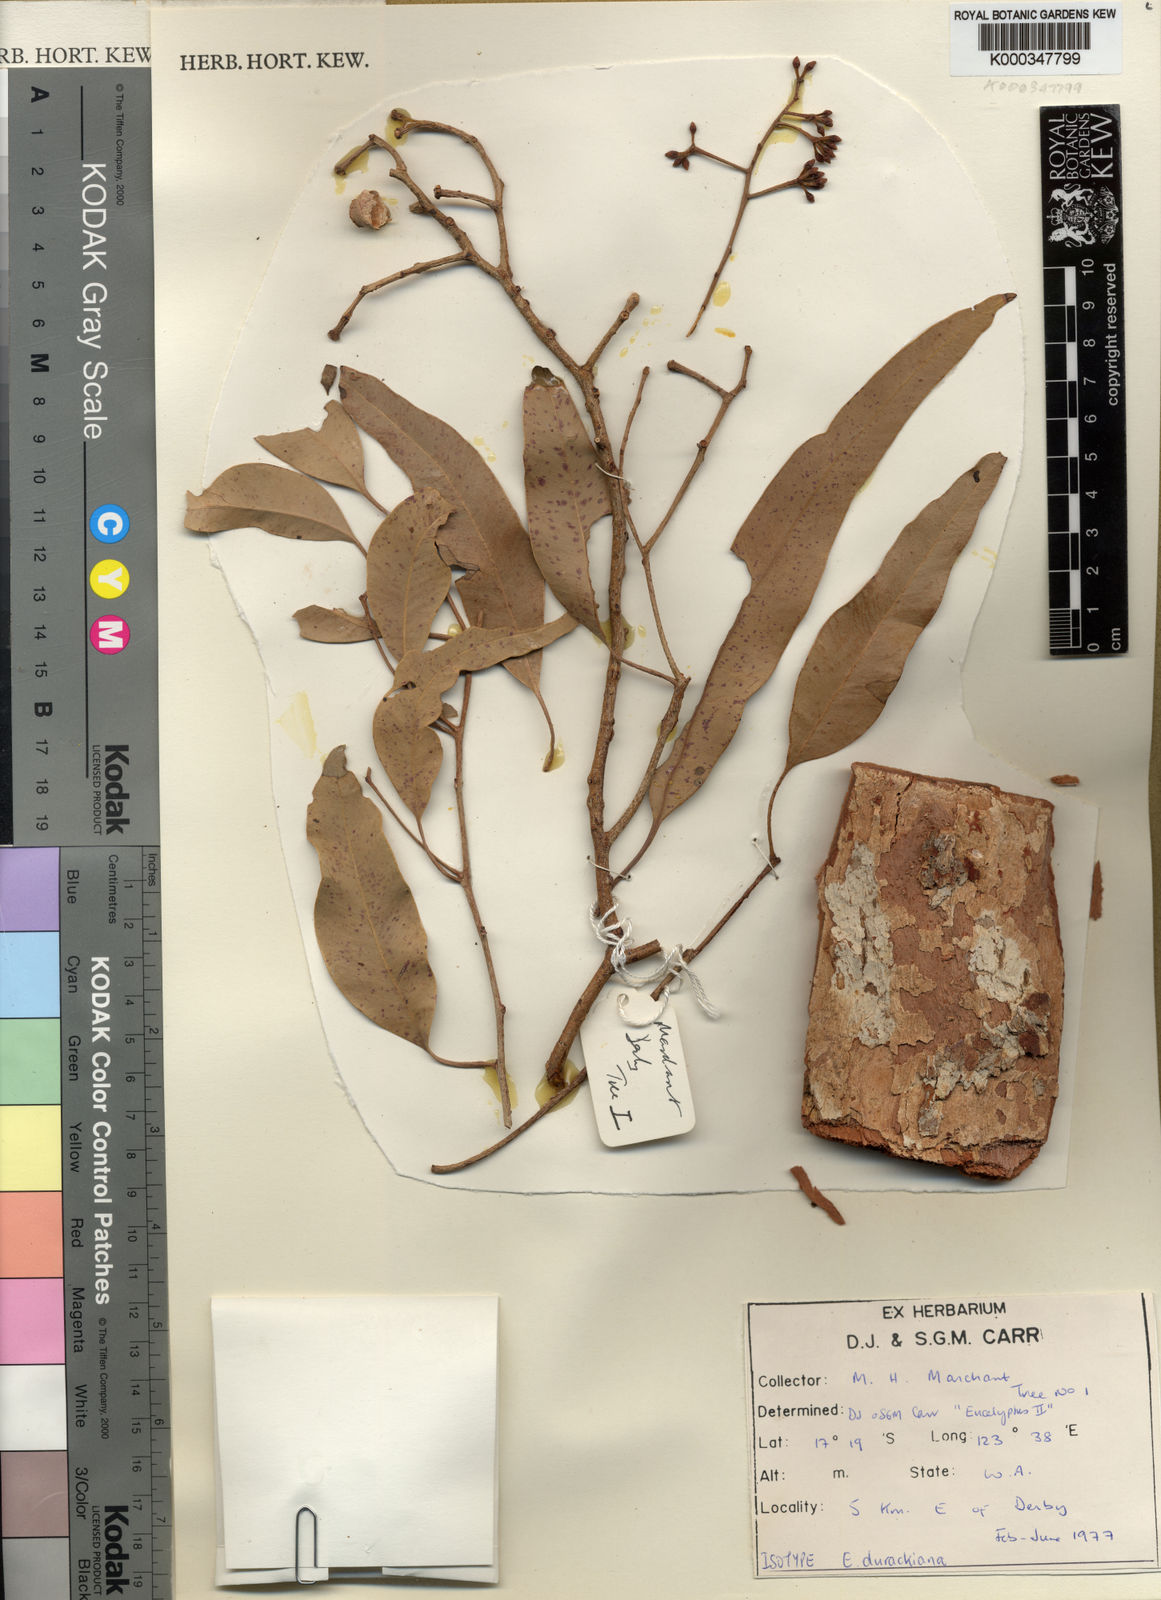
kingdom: Plantae
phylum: Tracheophyta
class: Magnoliopsida
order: Myrtales
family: Myrtaceae
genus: Corymbia
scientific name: Corymbia greeniana
